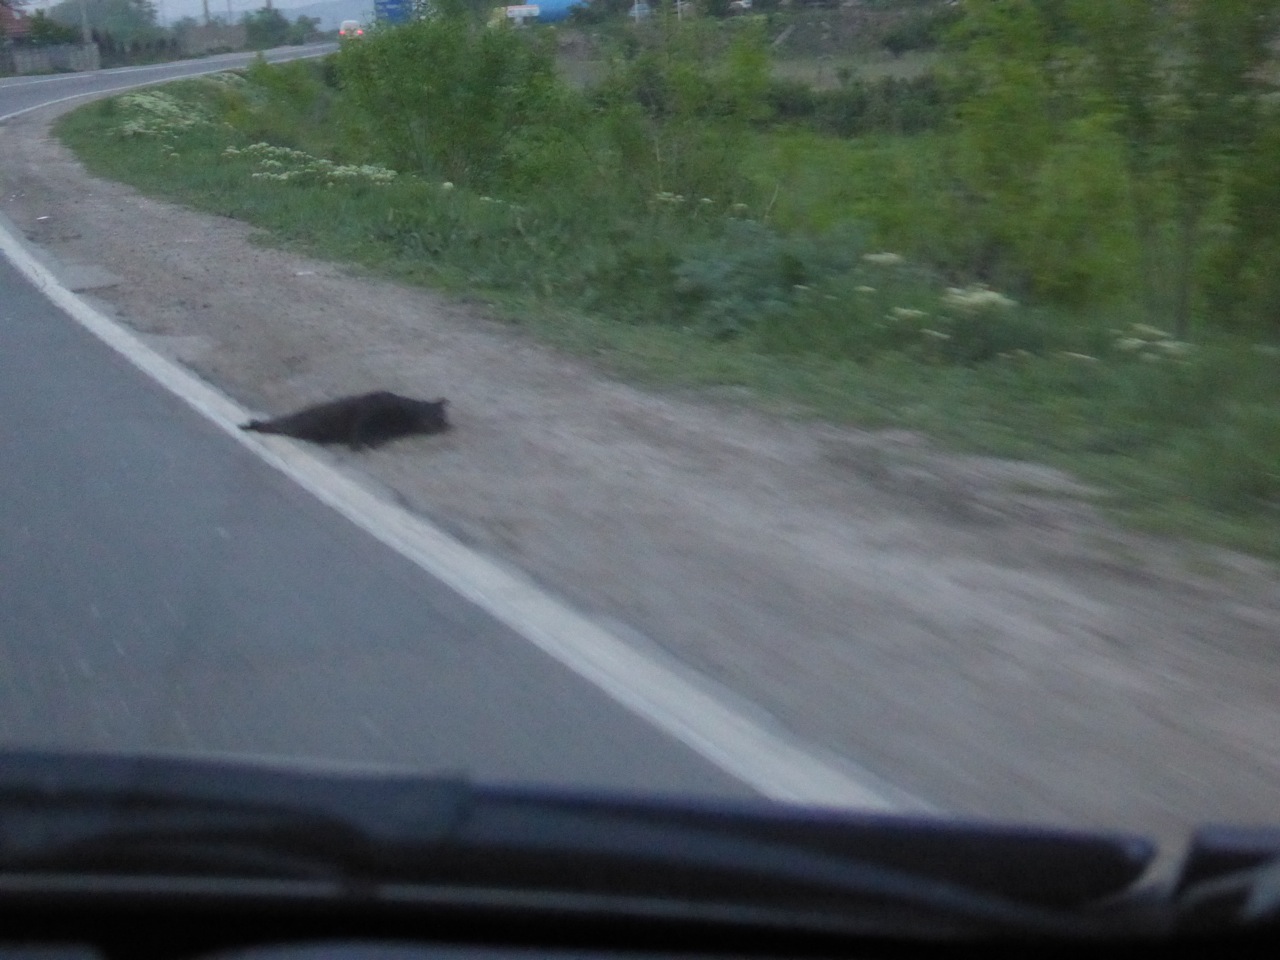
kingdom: Animalia
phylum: Chordata
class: Mammalia
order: Carnivora
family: Felidae
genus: Felis
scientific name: Felis catus
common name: Domestic cat
